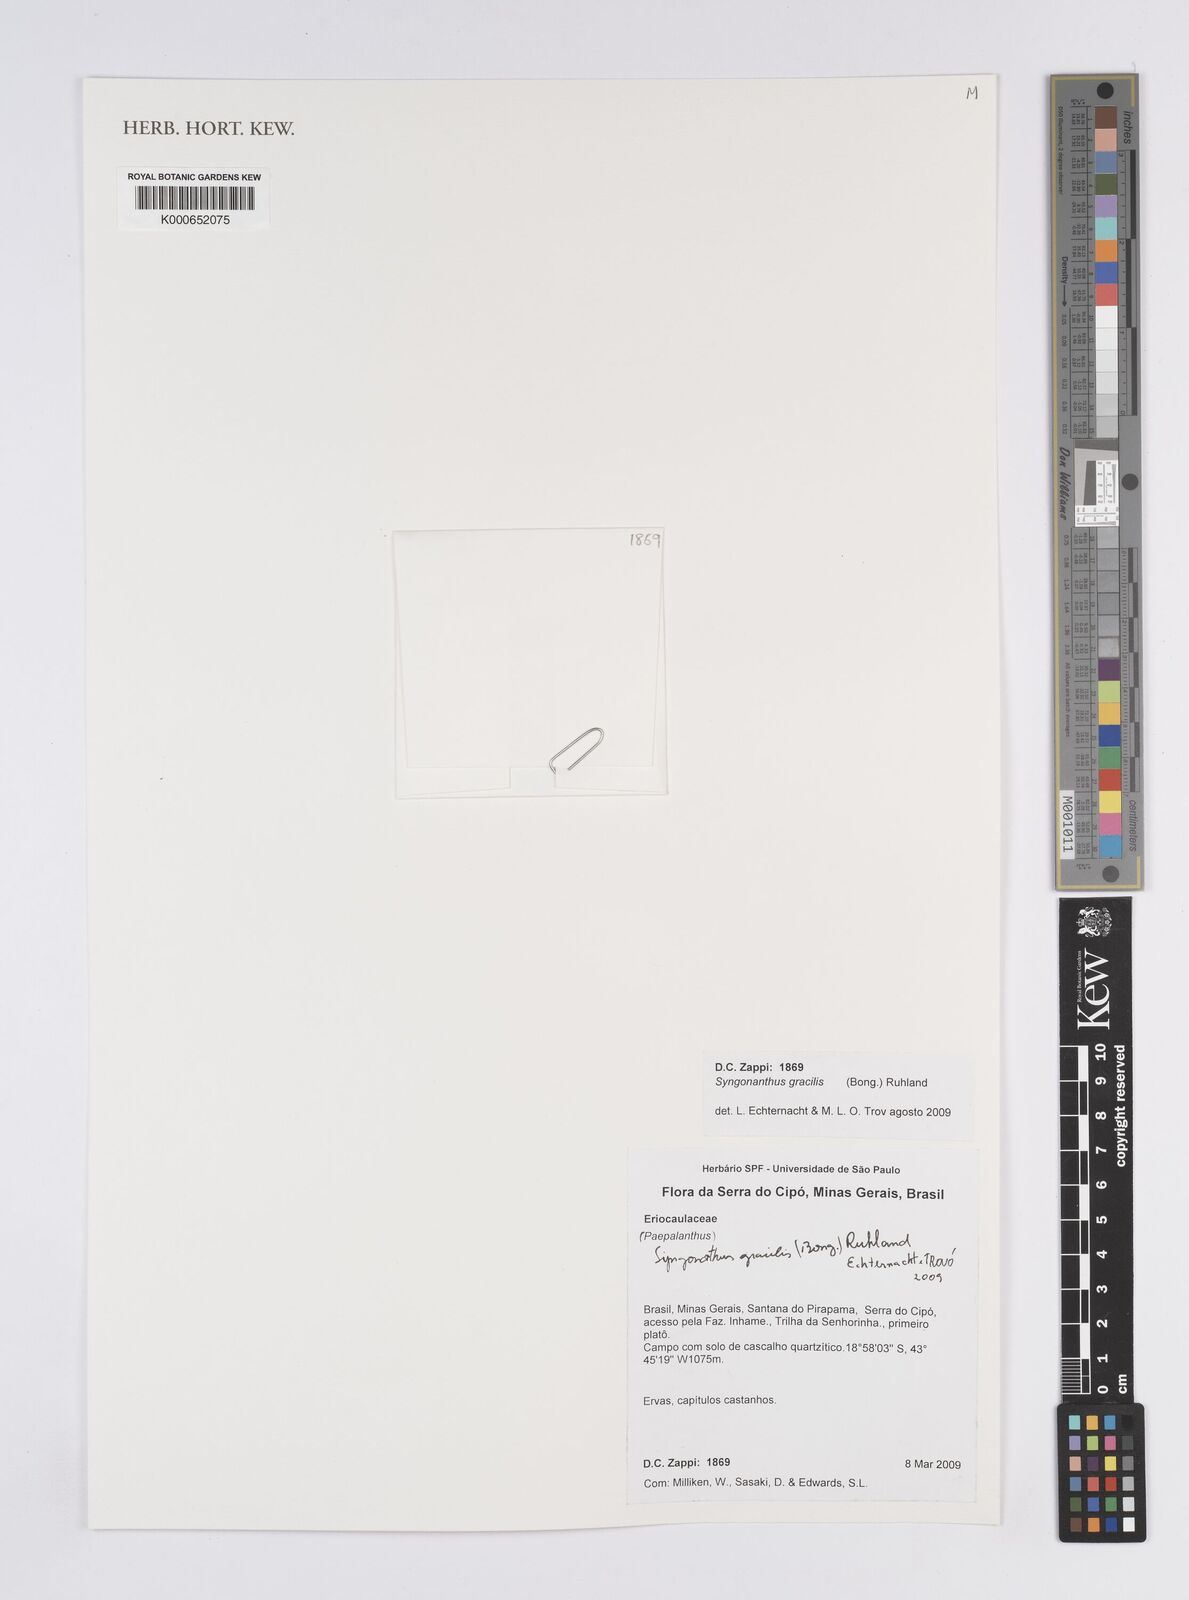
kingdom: Plantae
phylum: Tracheophyta
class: Liliopsida
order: Poales
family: Eriocaulaceae
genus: Syngonanthus
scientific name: Syngonanthus gracilis
